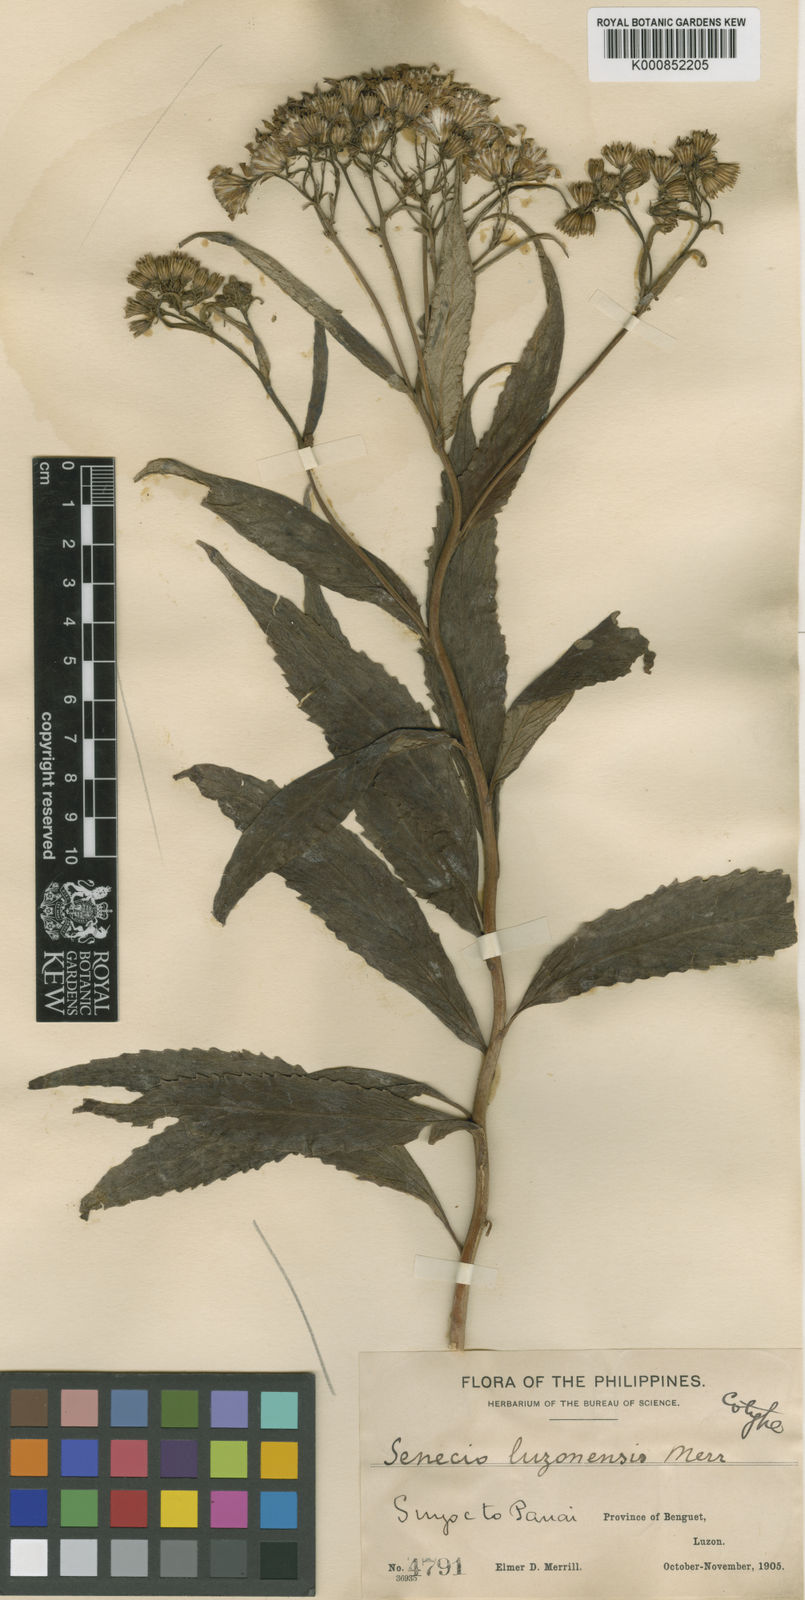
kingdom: Plantae
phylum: Tracheophyta
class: Magnoliopsida
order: Asterales
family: Asteraceae
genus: Senecio
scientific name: Senecio luzoniensis
